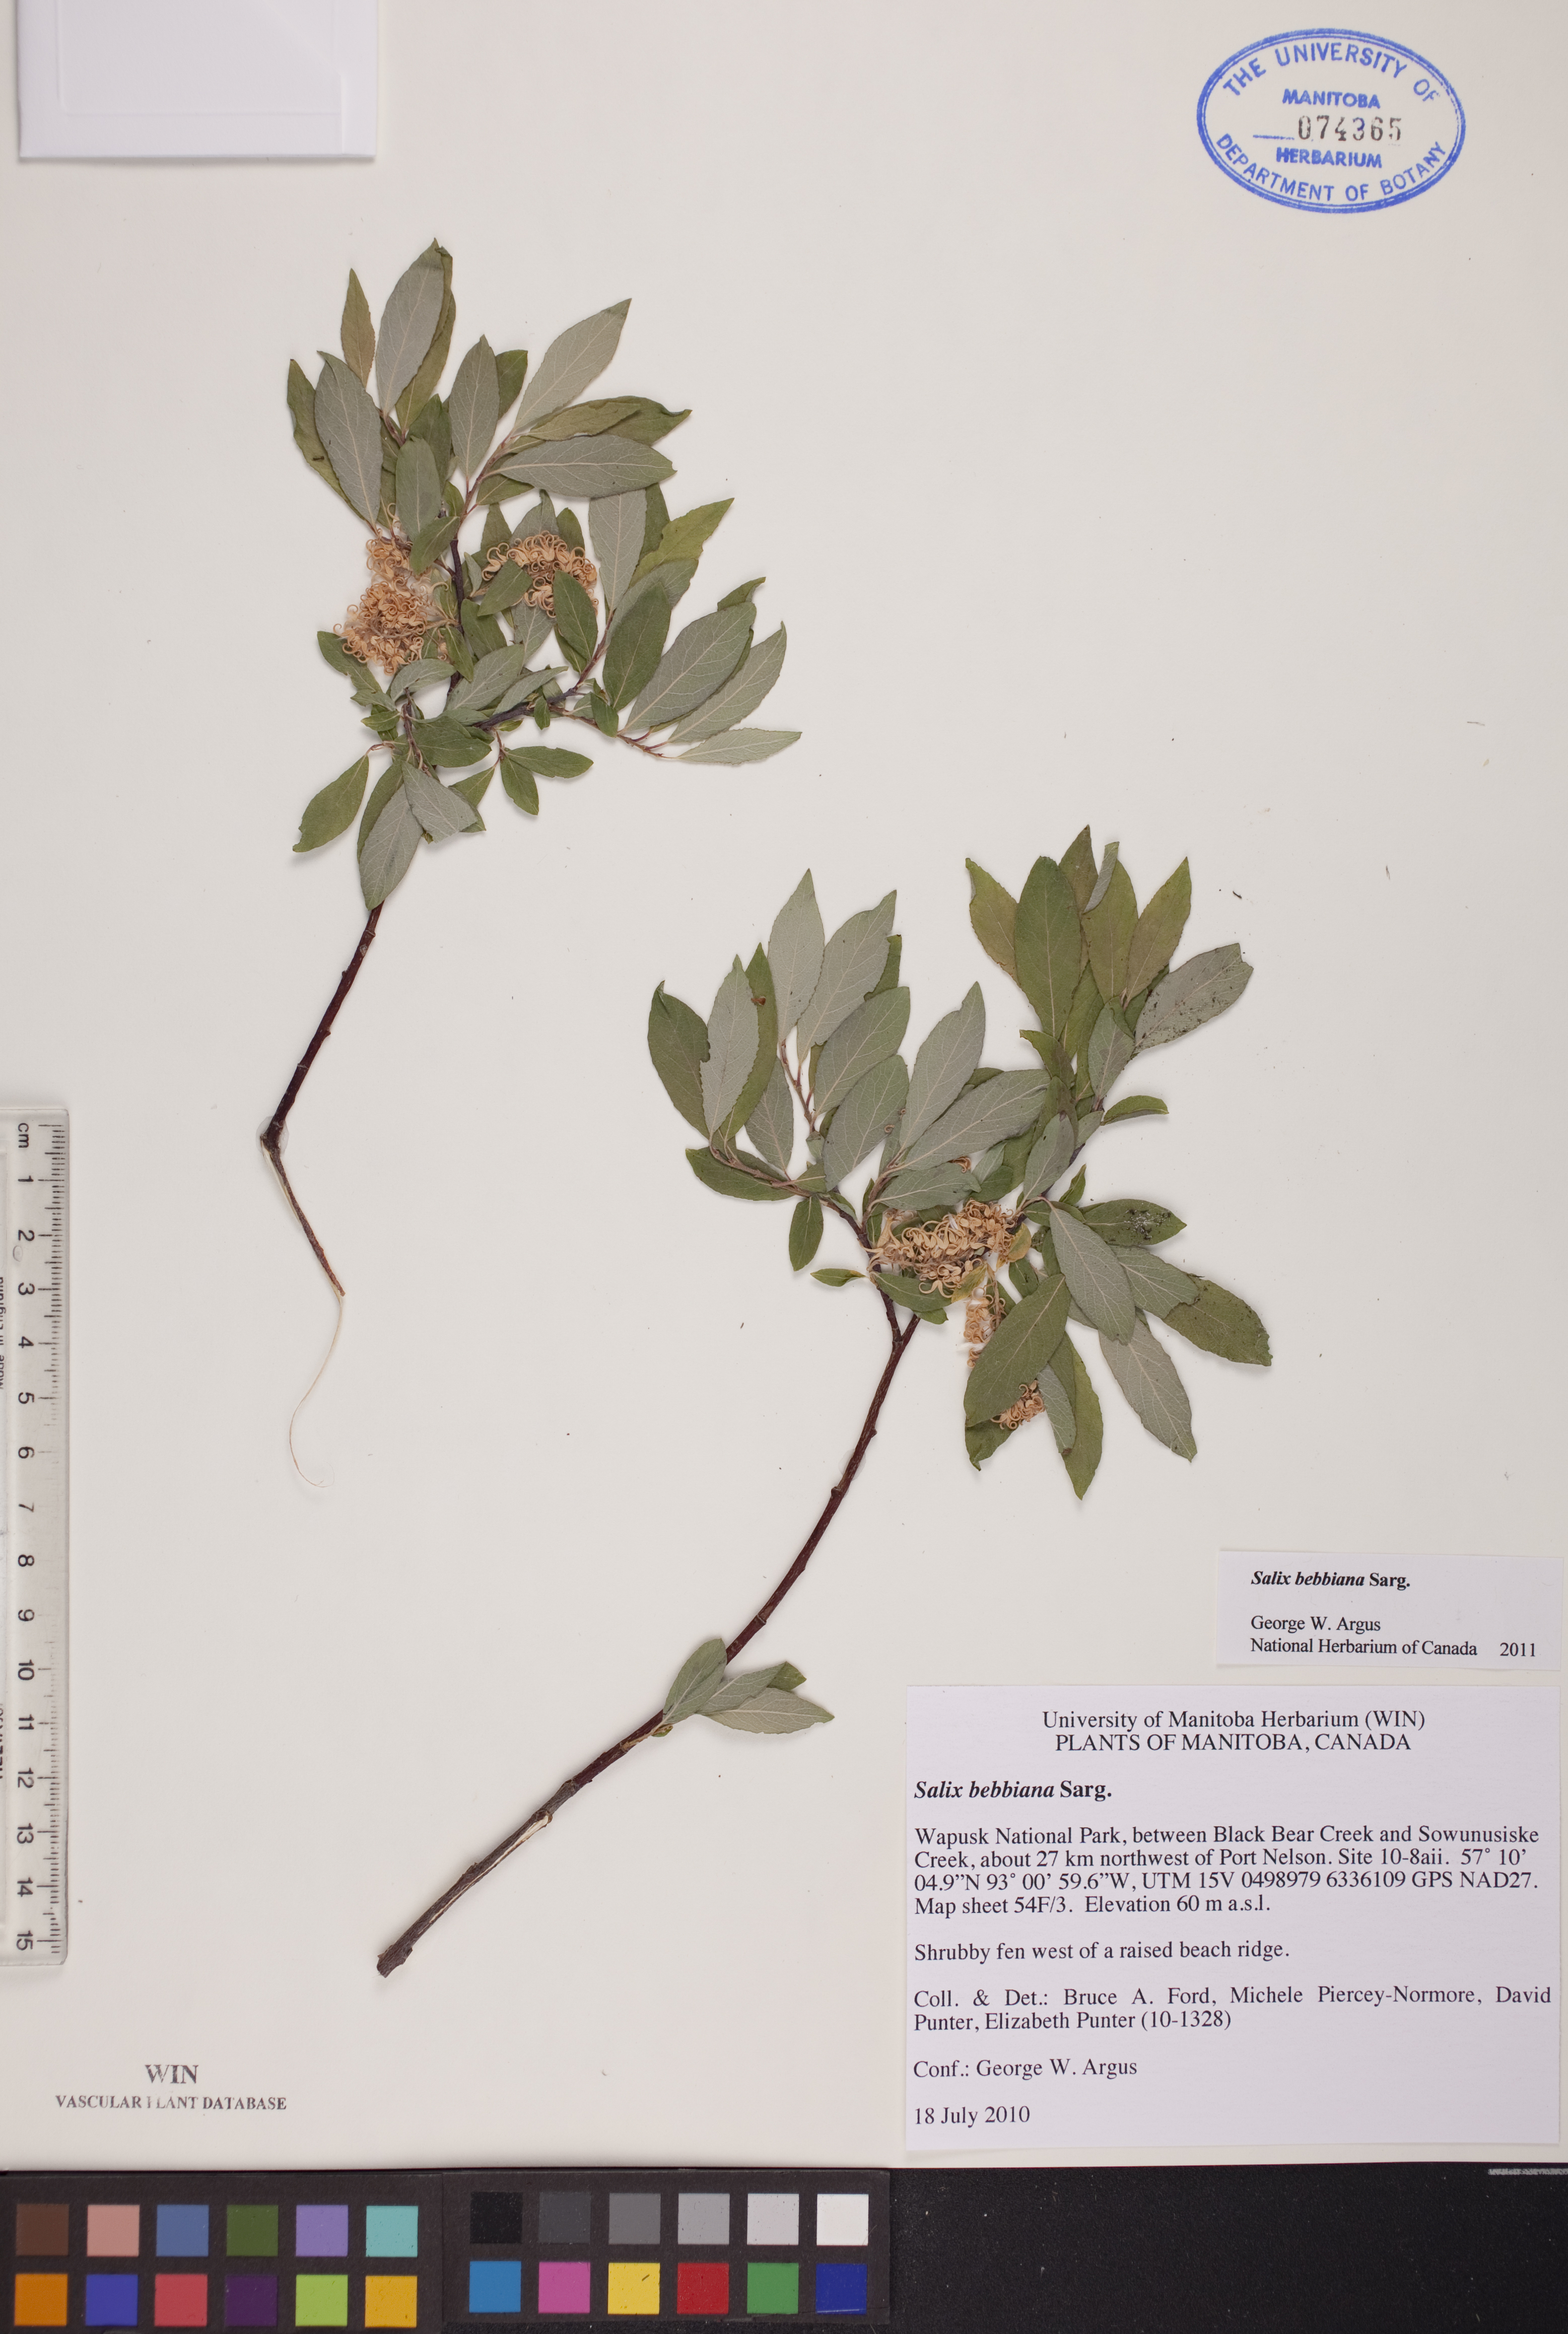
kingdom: Plantae
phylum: Tracheophyta
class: Magnoliopsida
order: Malpighiales
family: Salicaceae
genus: Salix
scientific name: Salix bebbiana
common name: Bebb's willow
